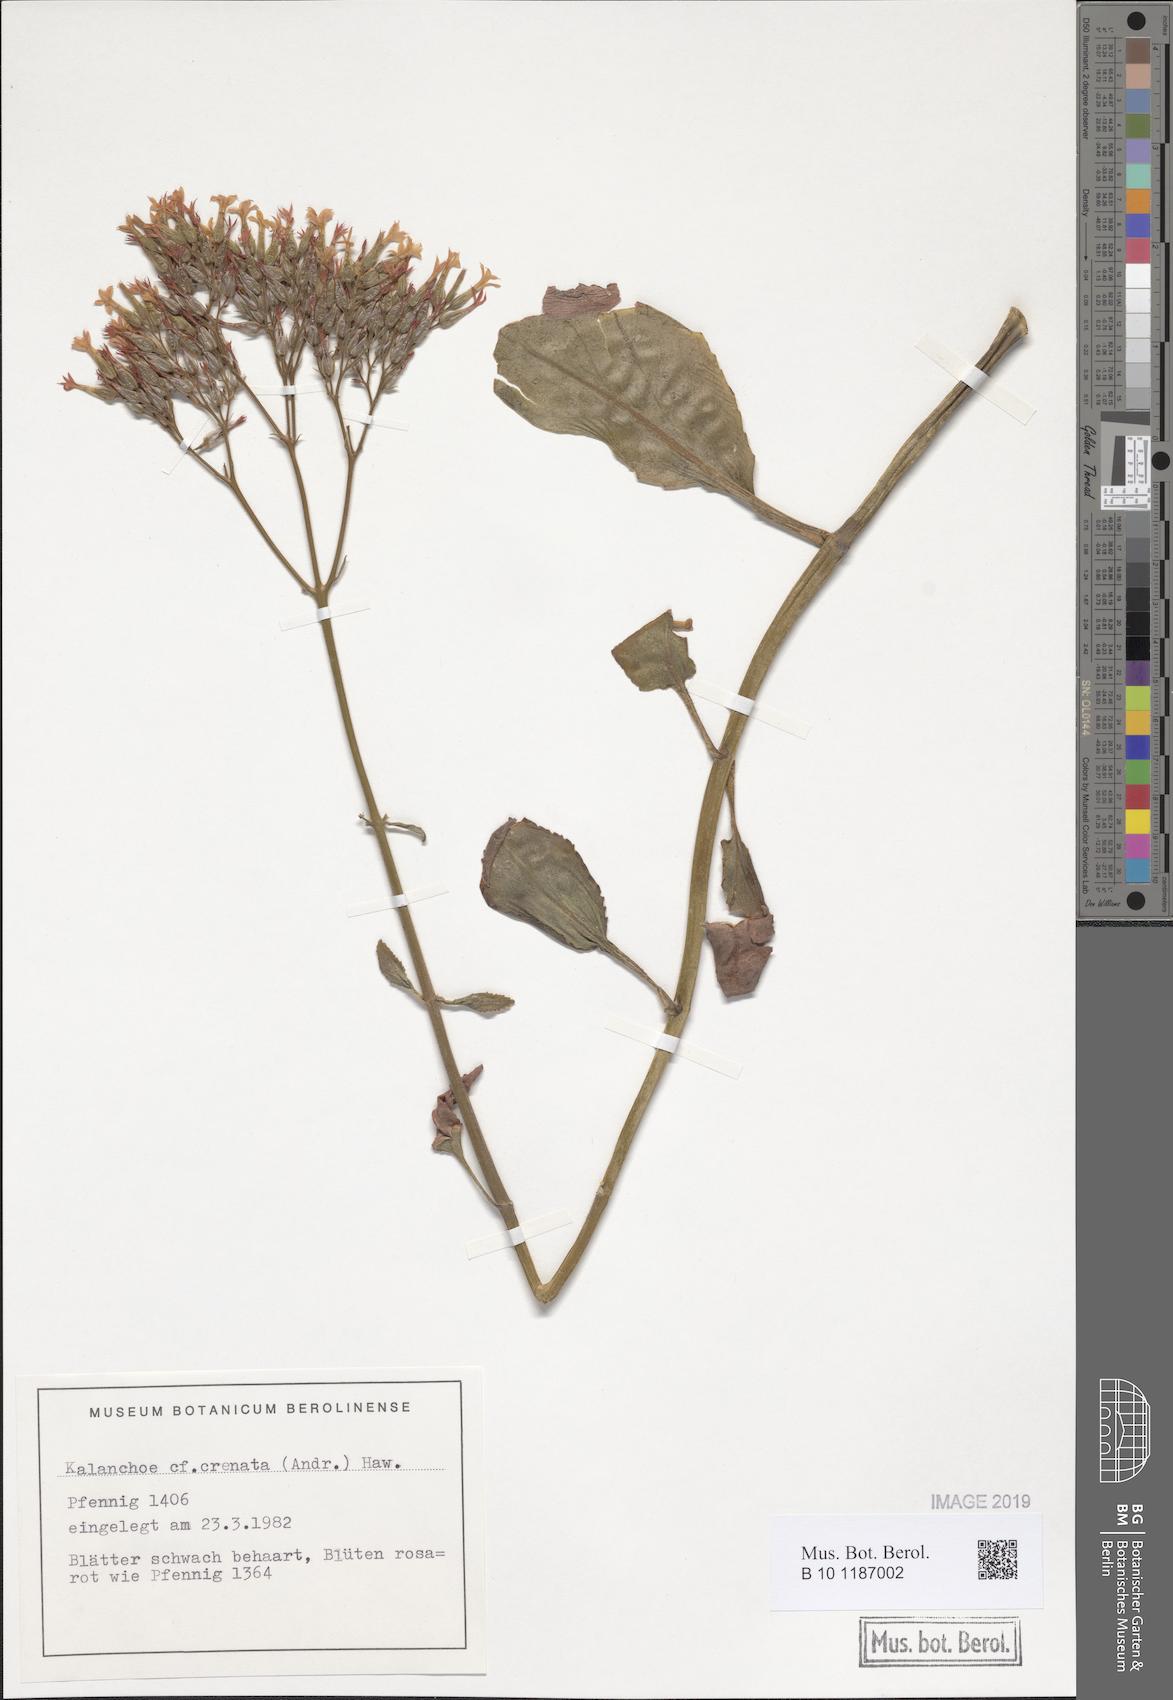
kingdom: Plantae
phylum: Tracheophyta
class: Magnoliopsida
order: Saxifragales
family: Crassulaceae
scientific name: Crassulaceae
